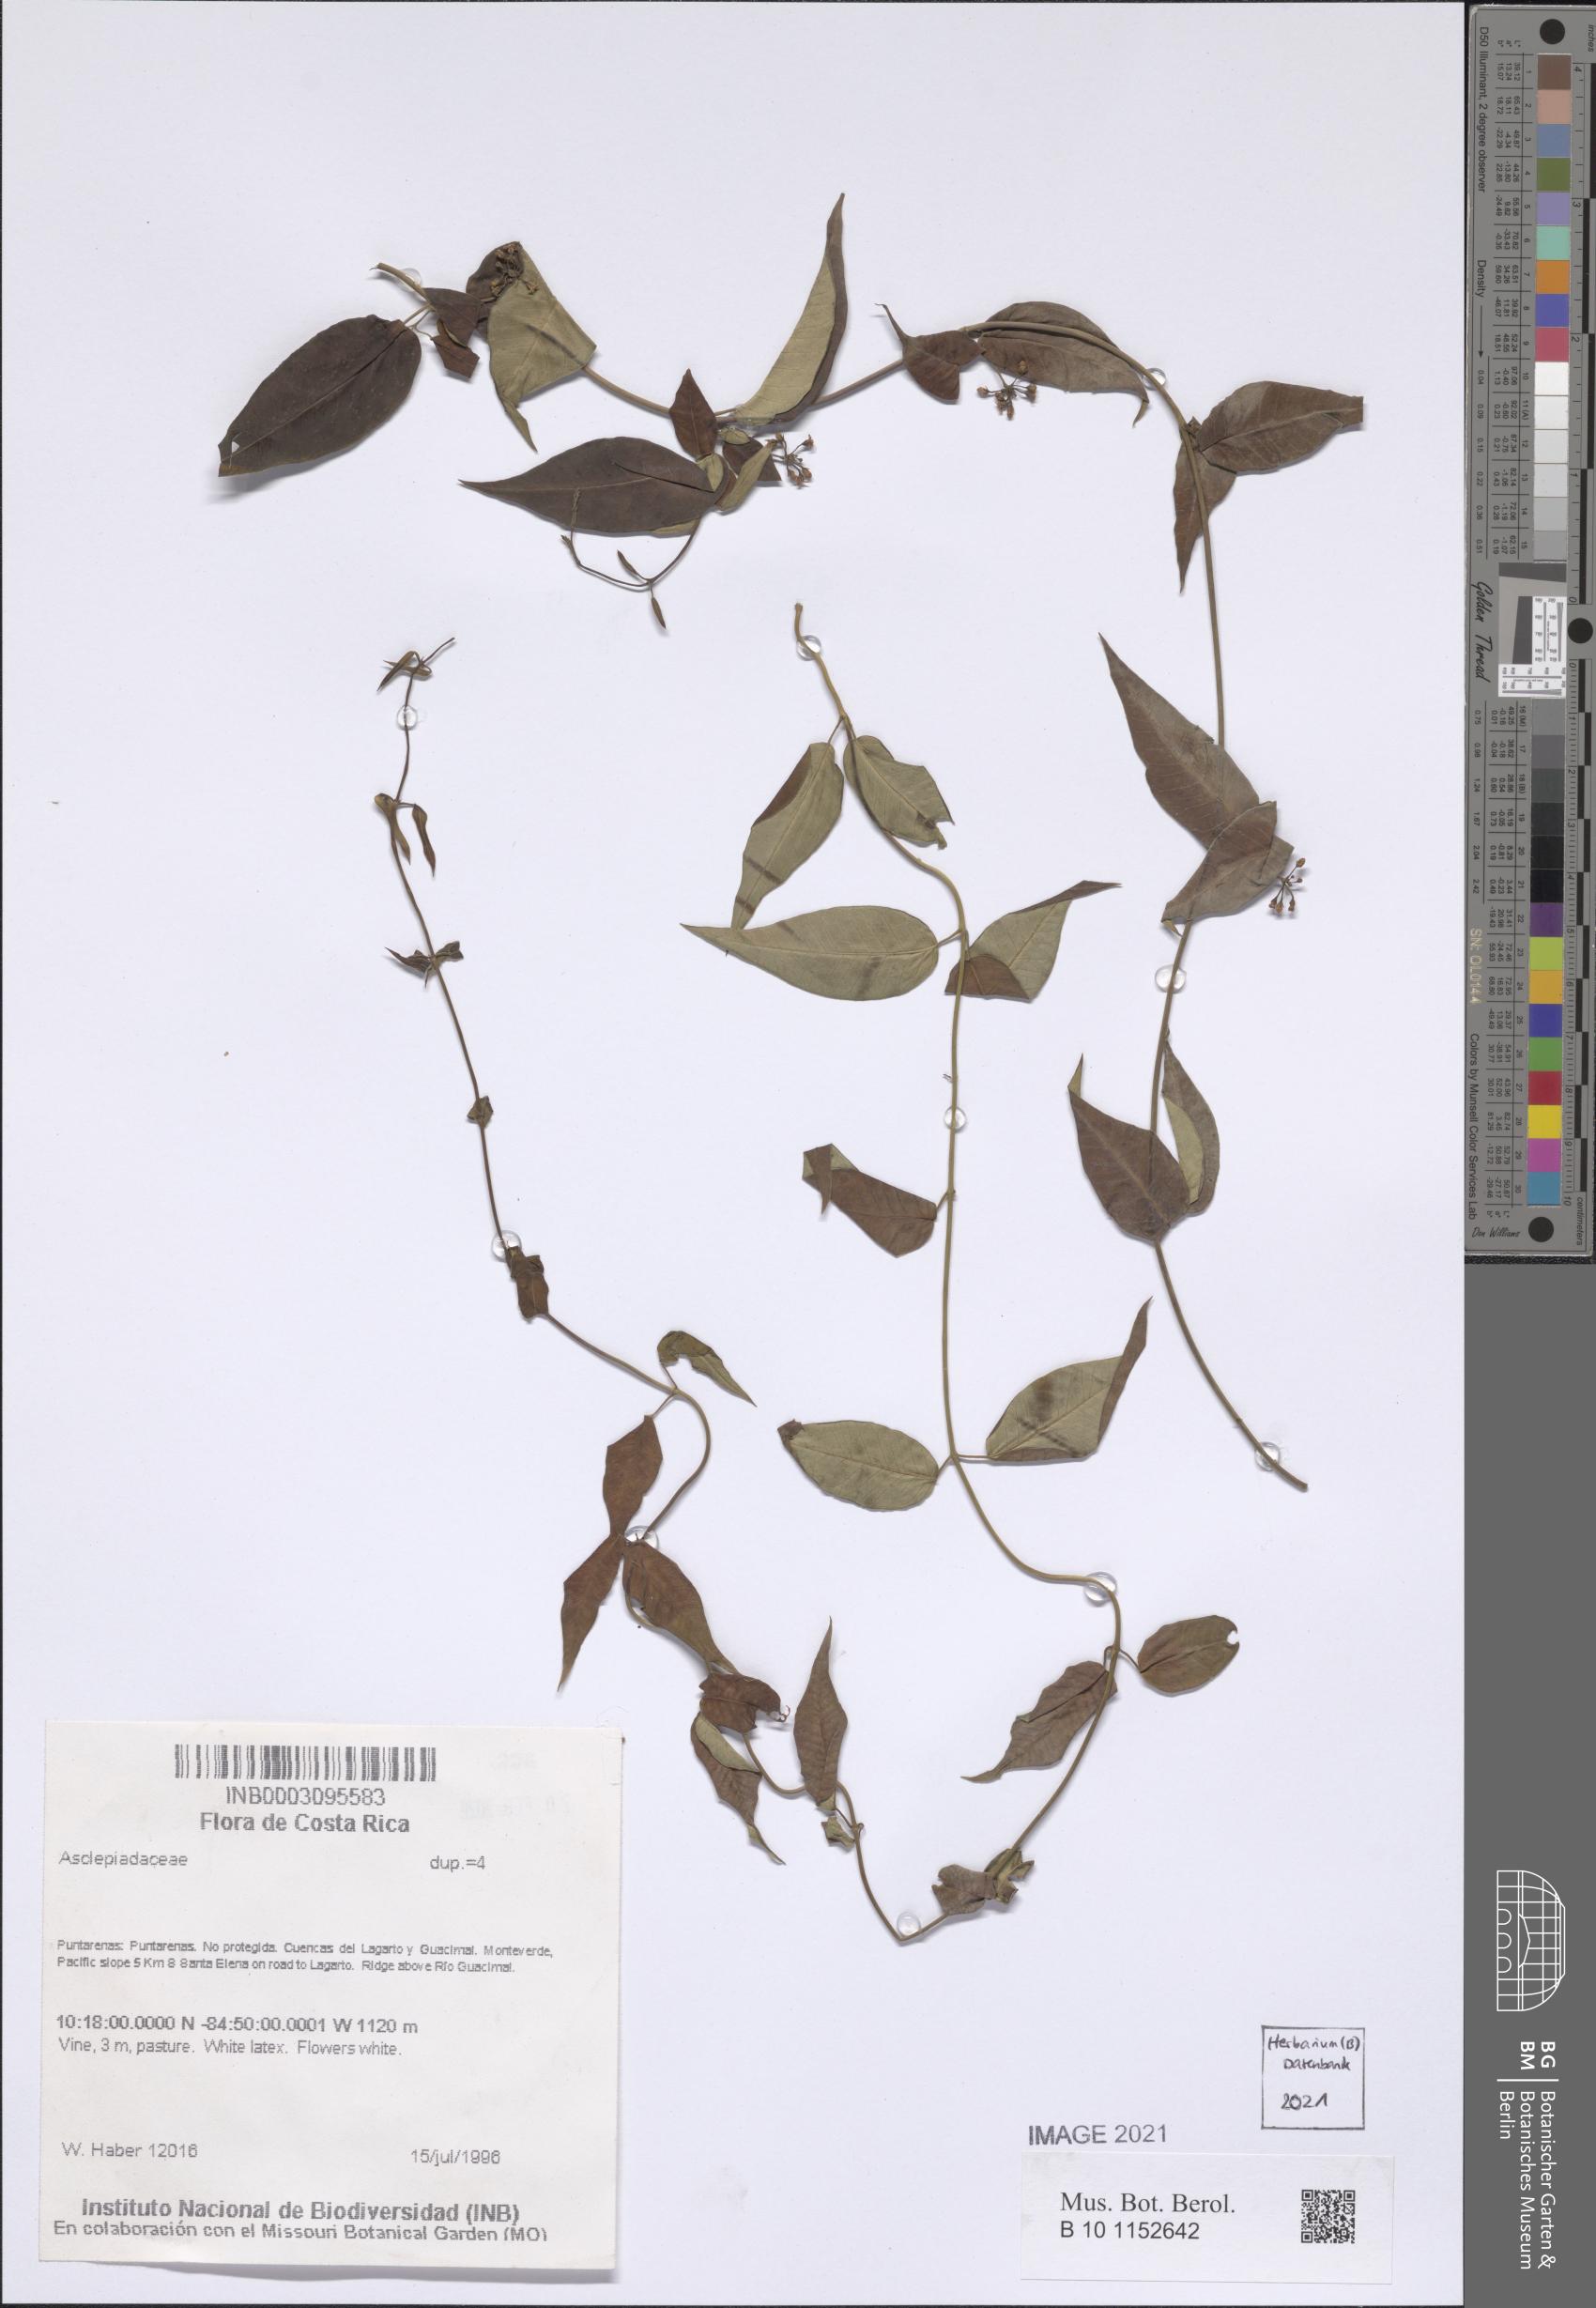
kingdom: Plantae
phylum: Tracheophyta
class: Magnoliopsida
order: Gentianales
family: Apocynaceae
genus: Metastelma
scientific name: Metastelma sepicola
